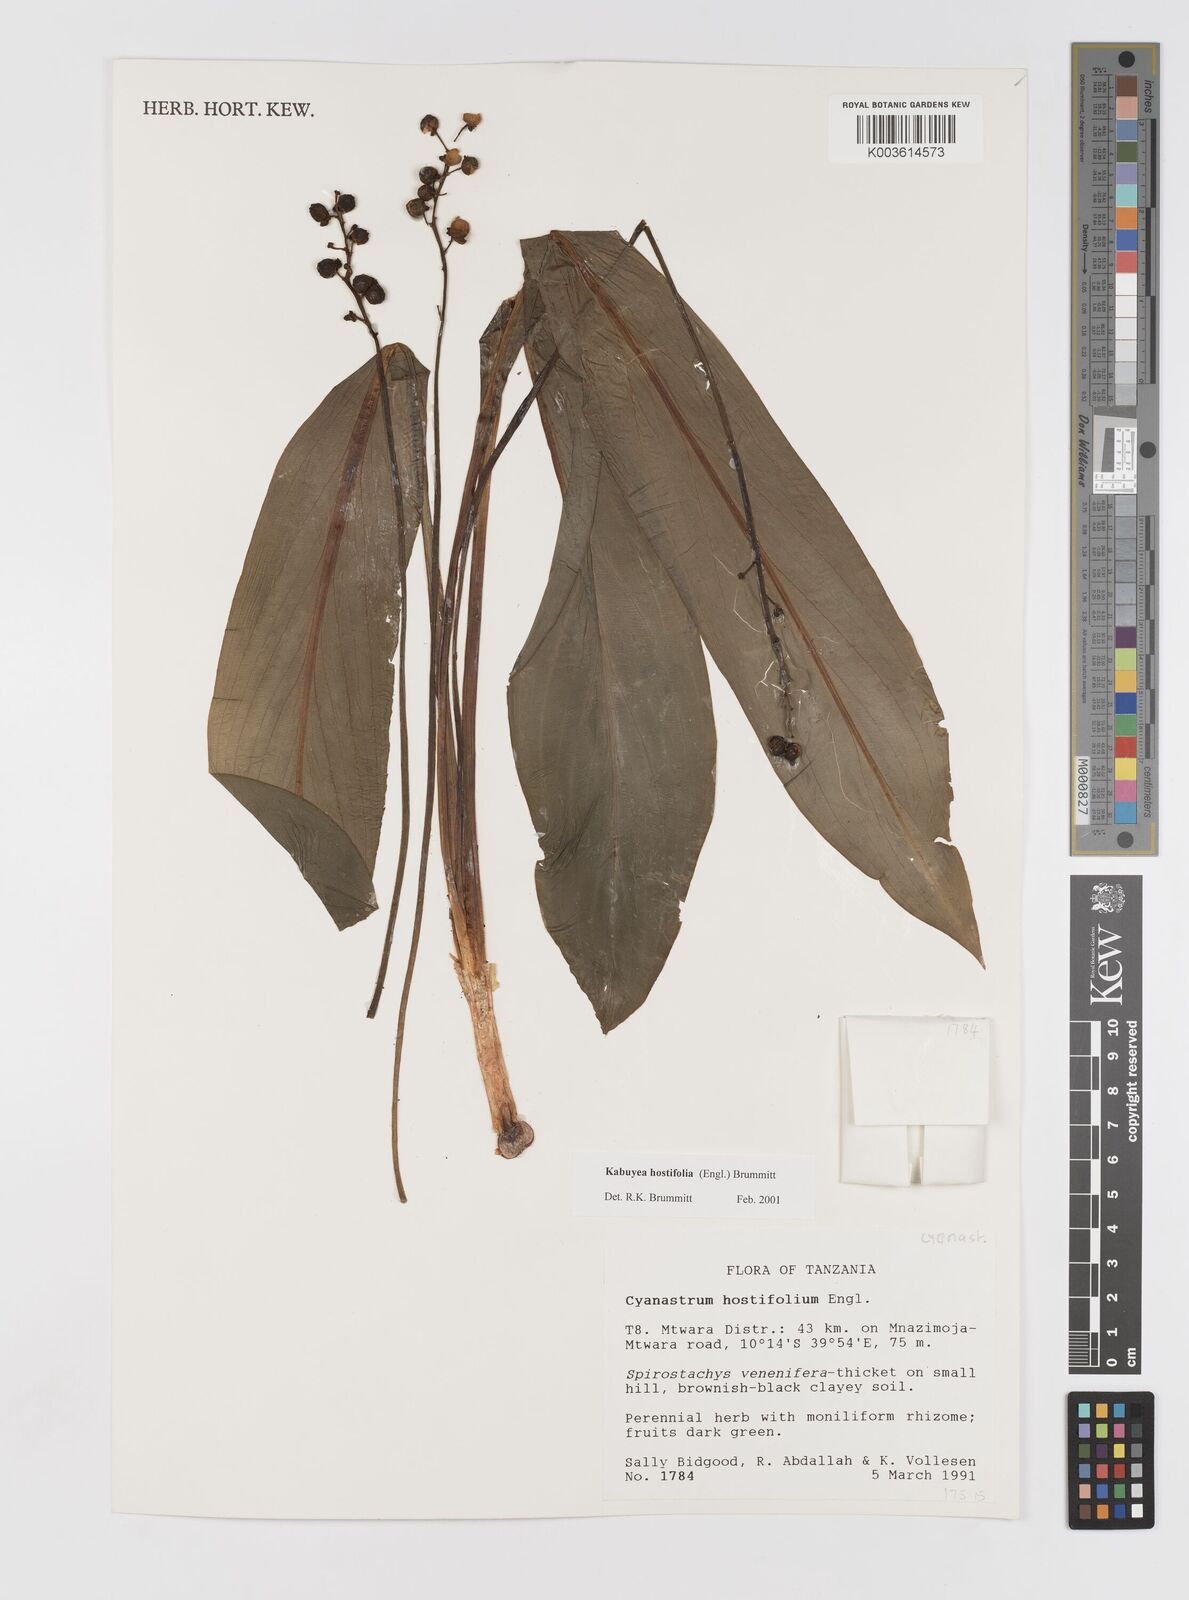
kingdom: Plantae
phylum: Tracheophyta
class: Liliopsida
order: Asparagales
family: Tecophilaeaceae
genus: Kabuyea
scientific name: Kabuyea hostifolia
